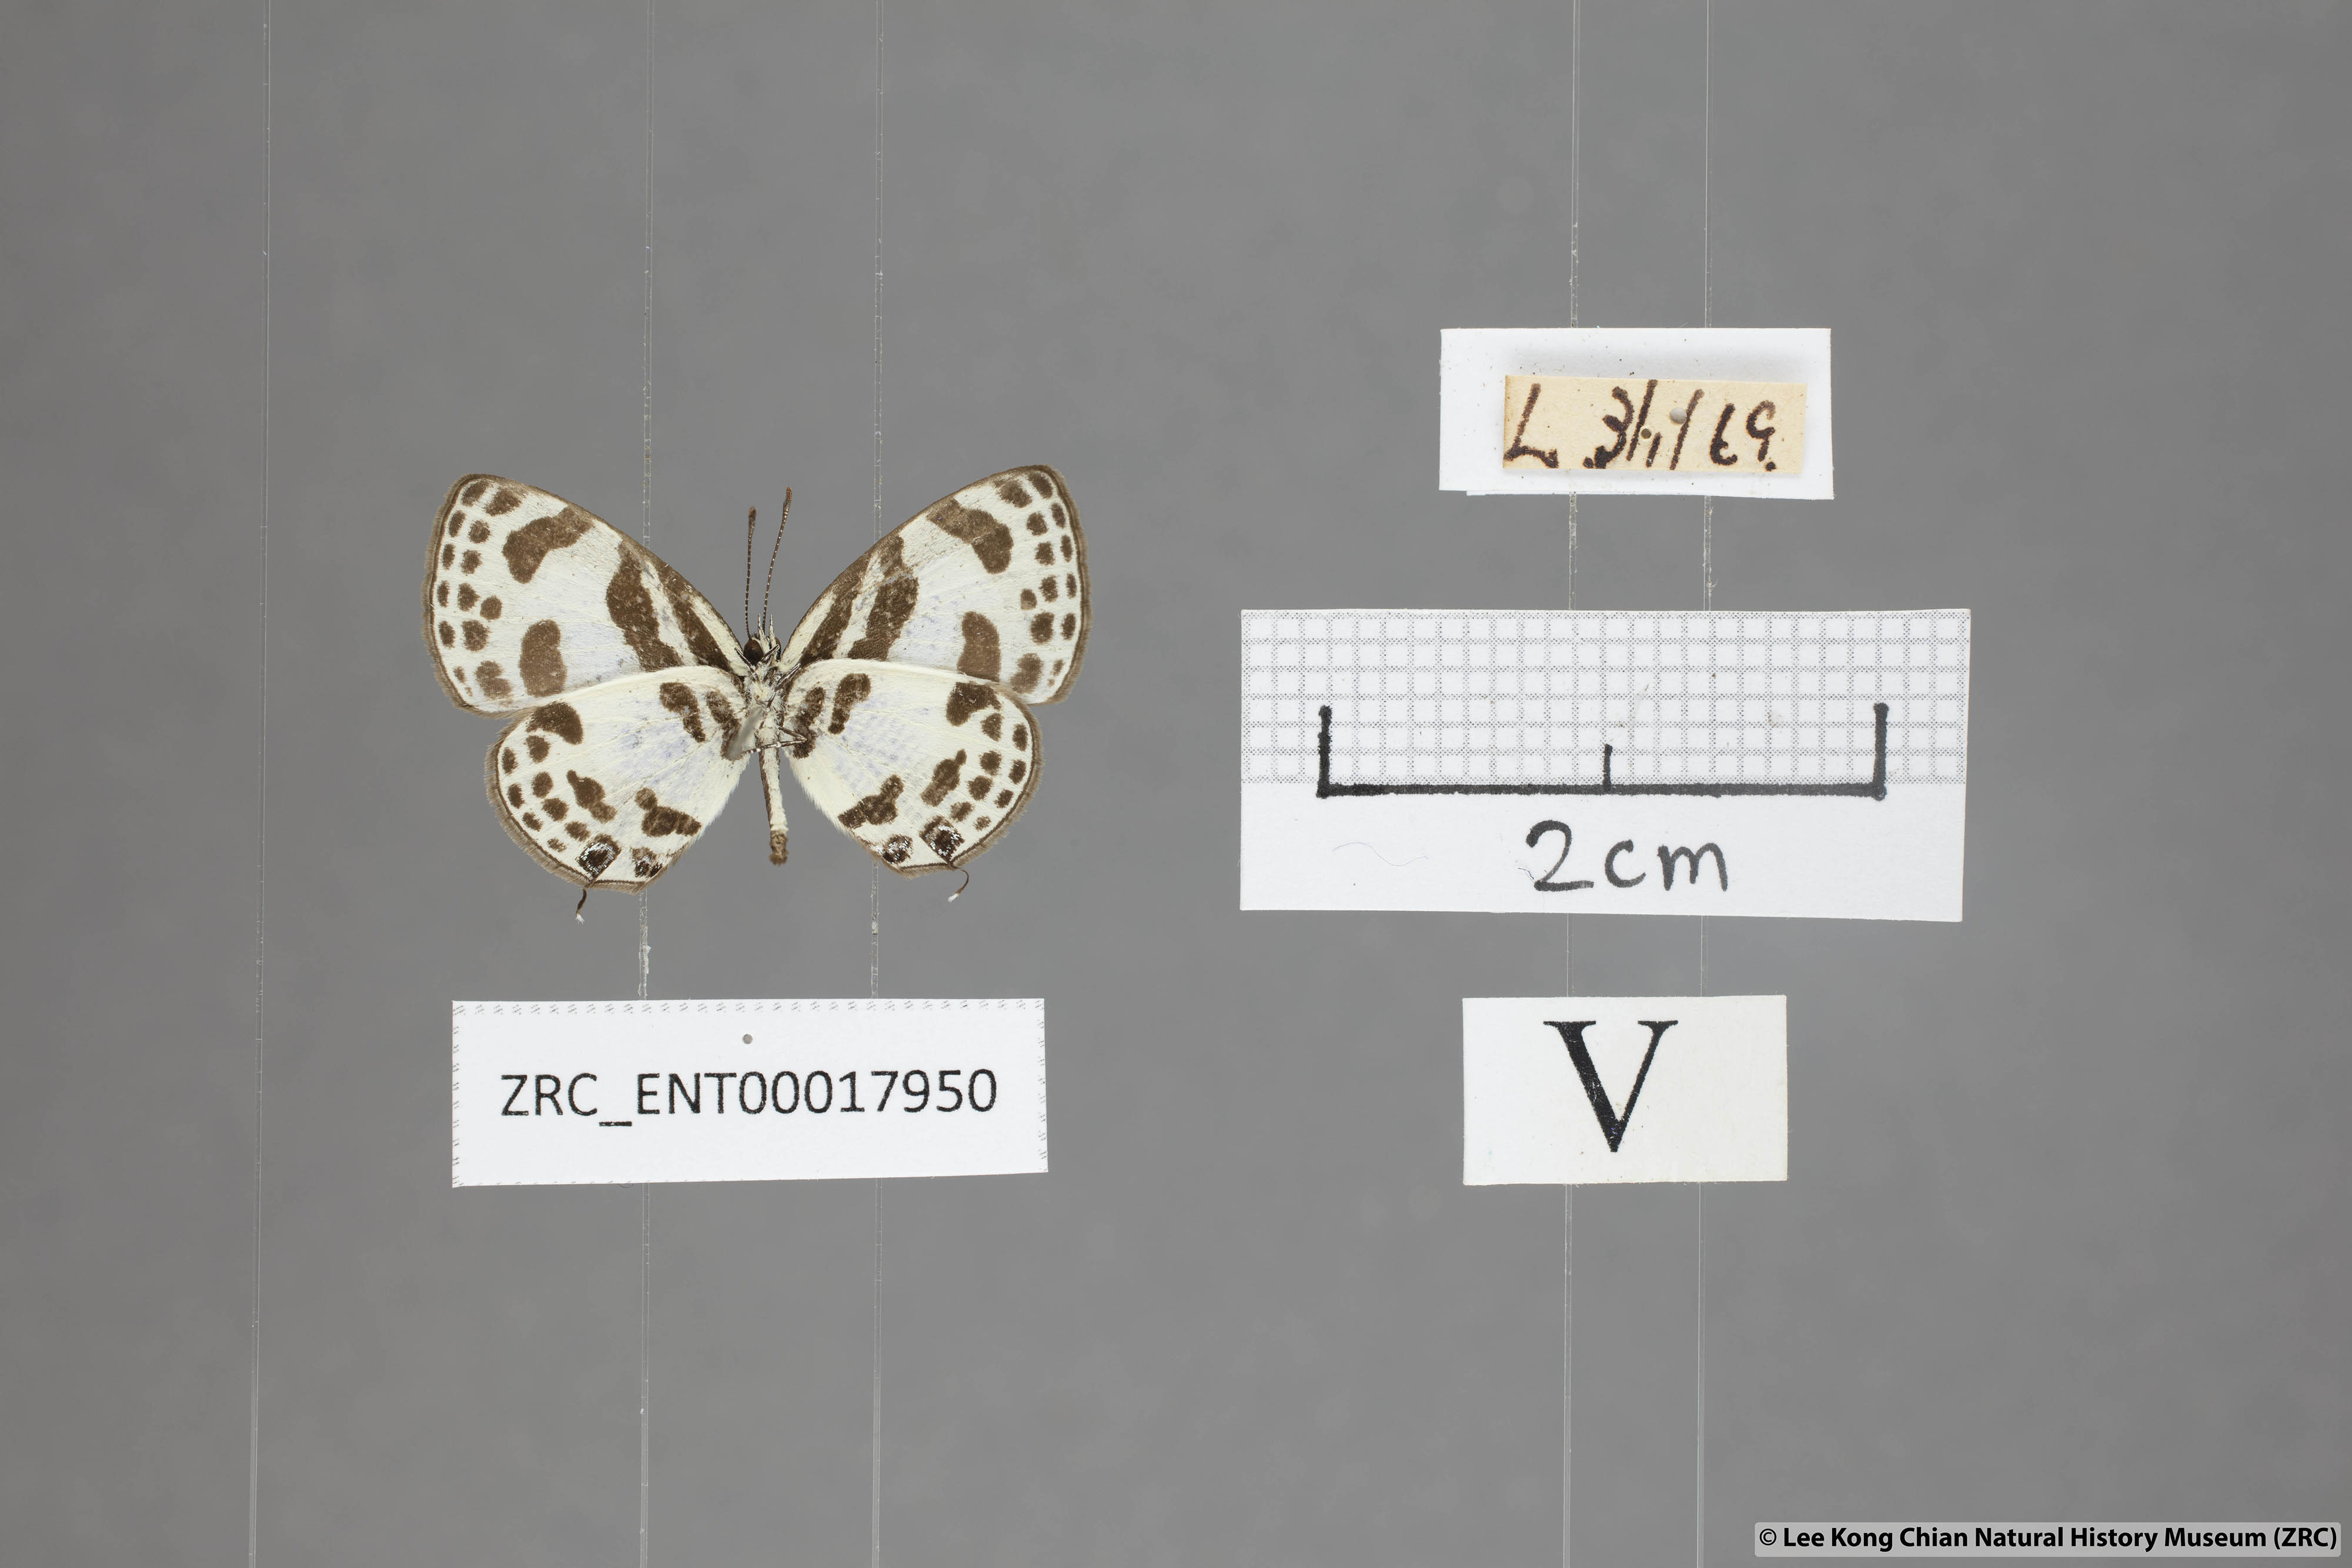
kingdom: Animalia
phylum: Arthropoda
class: Insecta
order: Lepidoptera
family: Lycaenidae
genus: Discolampa
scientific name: Discolampa ethion
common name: Banded blue pierrot
